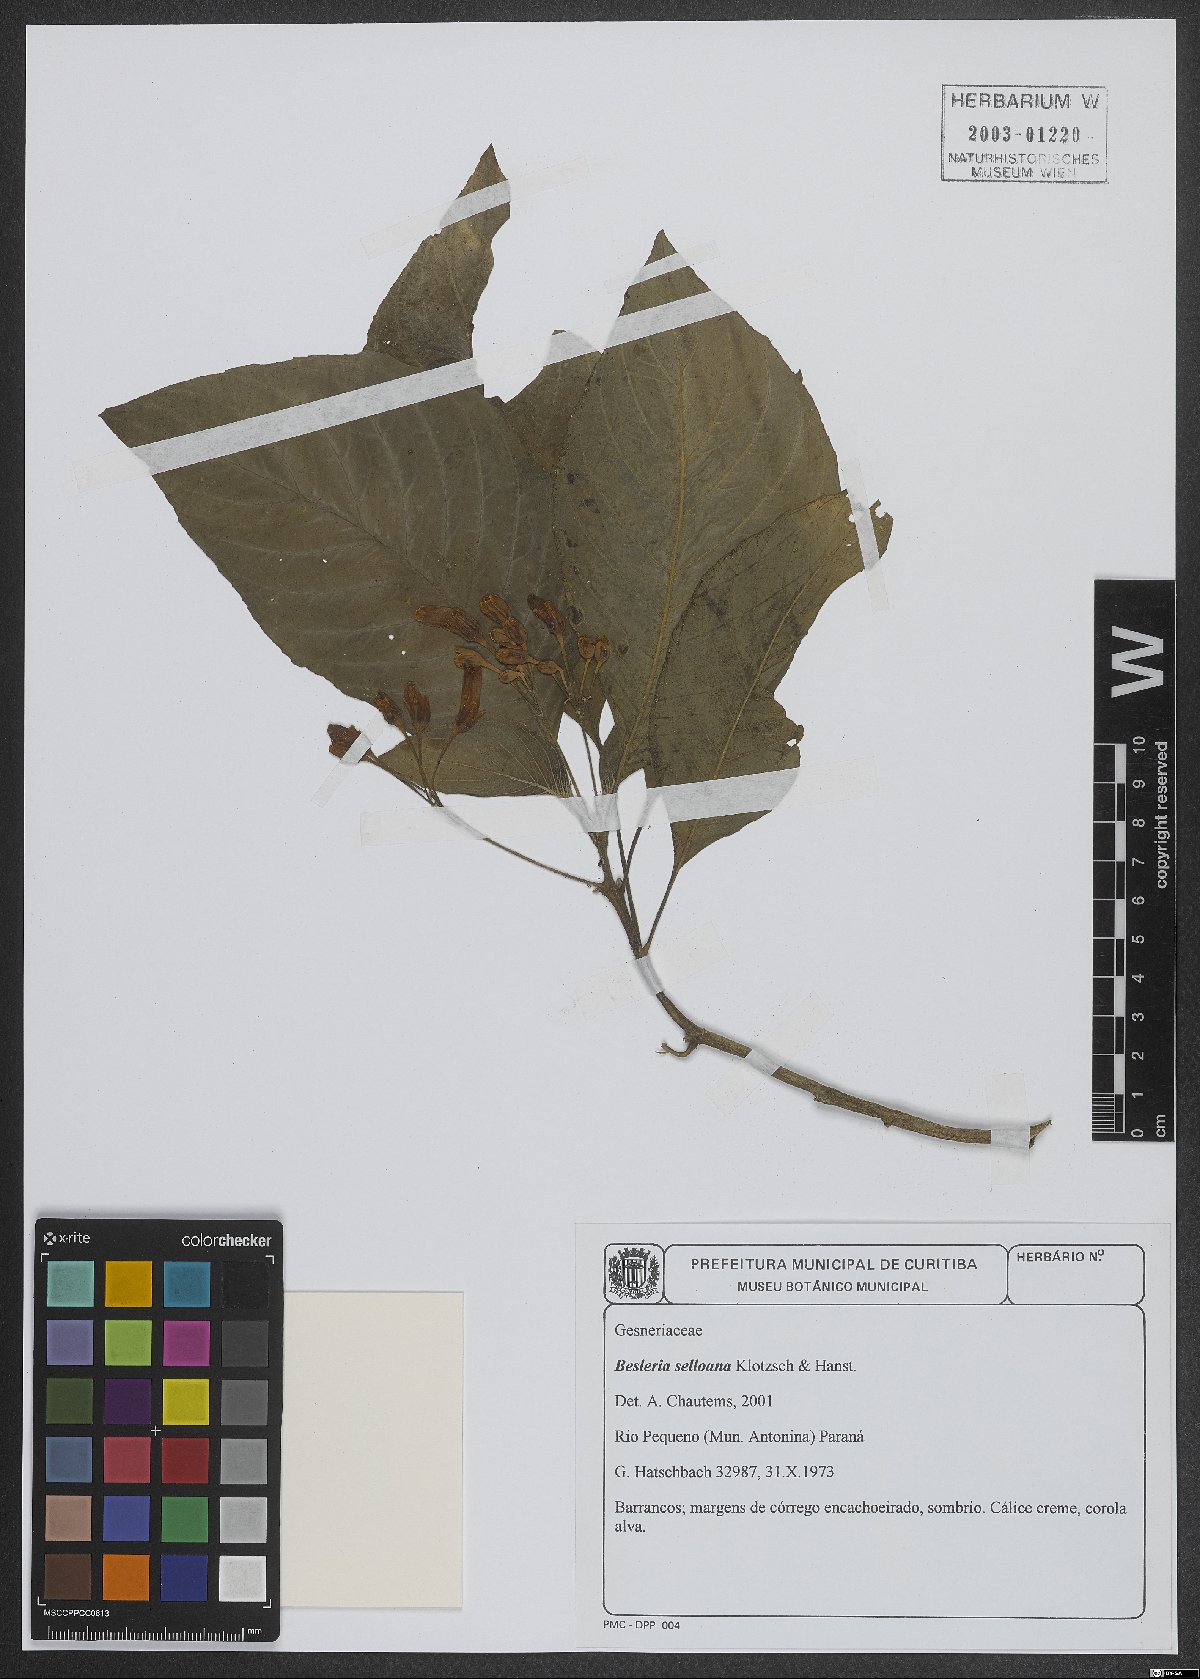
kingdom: Plantae
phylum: Tracheophyta
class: Magnoliopsida
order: Lamiales
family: Gesneriaceae
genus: Besleria
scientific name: Besleria selloana
